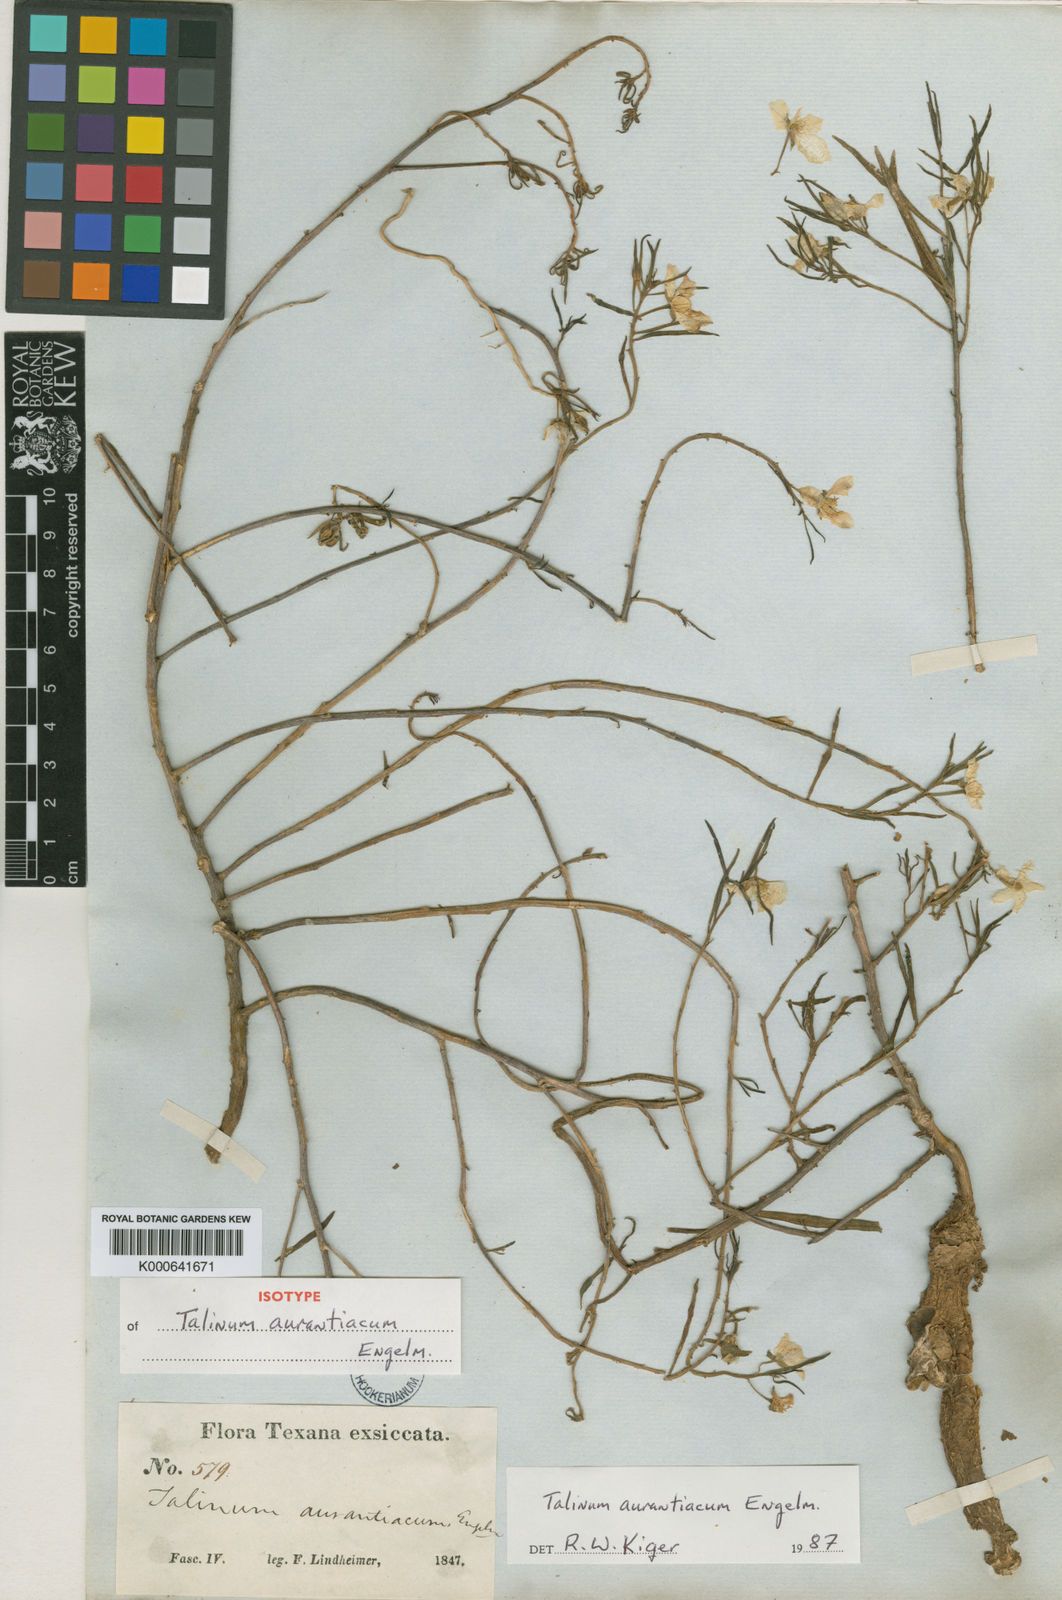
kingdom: Plantae
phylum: Tracheophyta
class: Magnoliopsida
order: Caryophyllales
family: Montiaceae
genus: Phemeranthus
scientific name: Phemeranthus aurantiacus
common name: Orange fameflower
